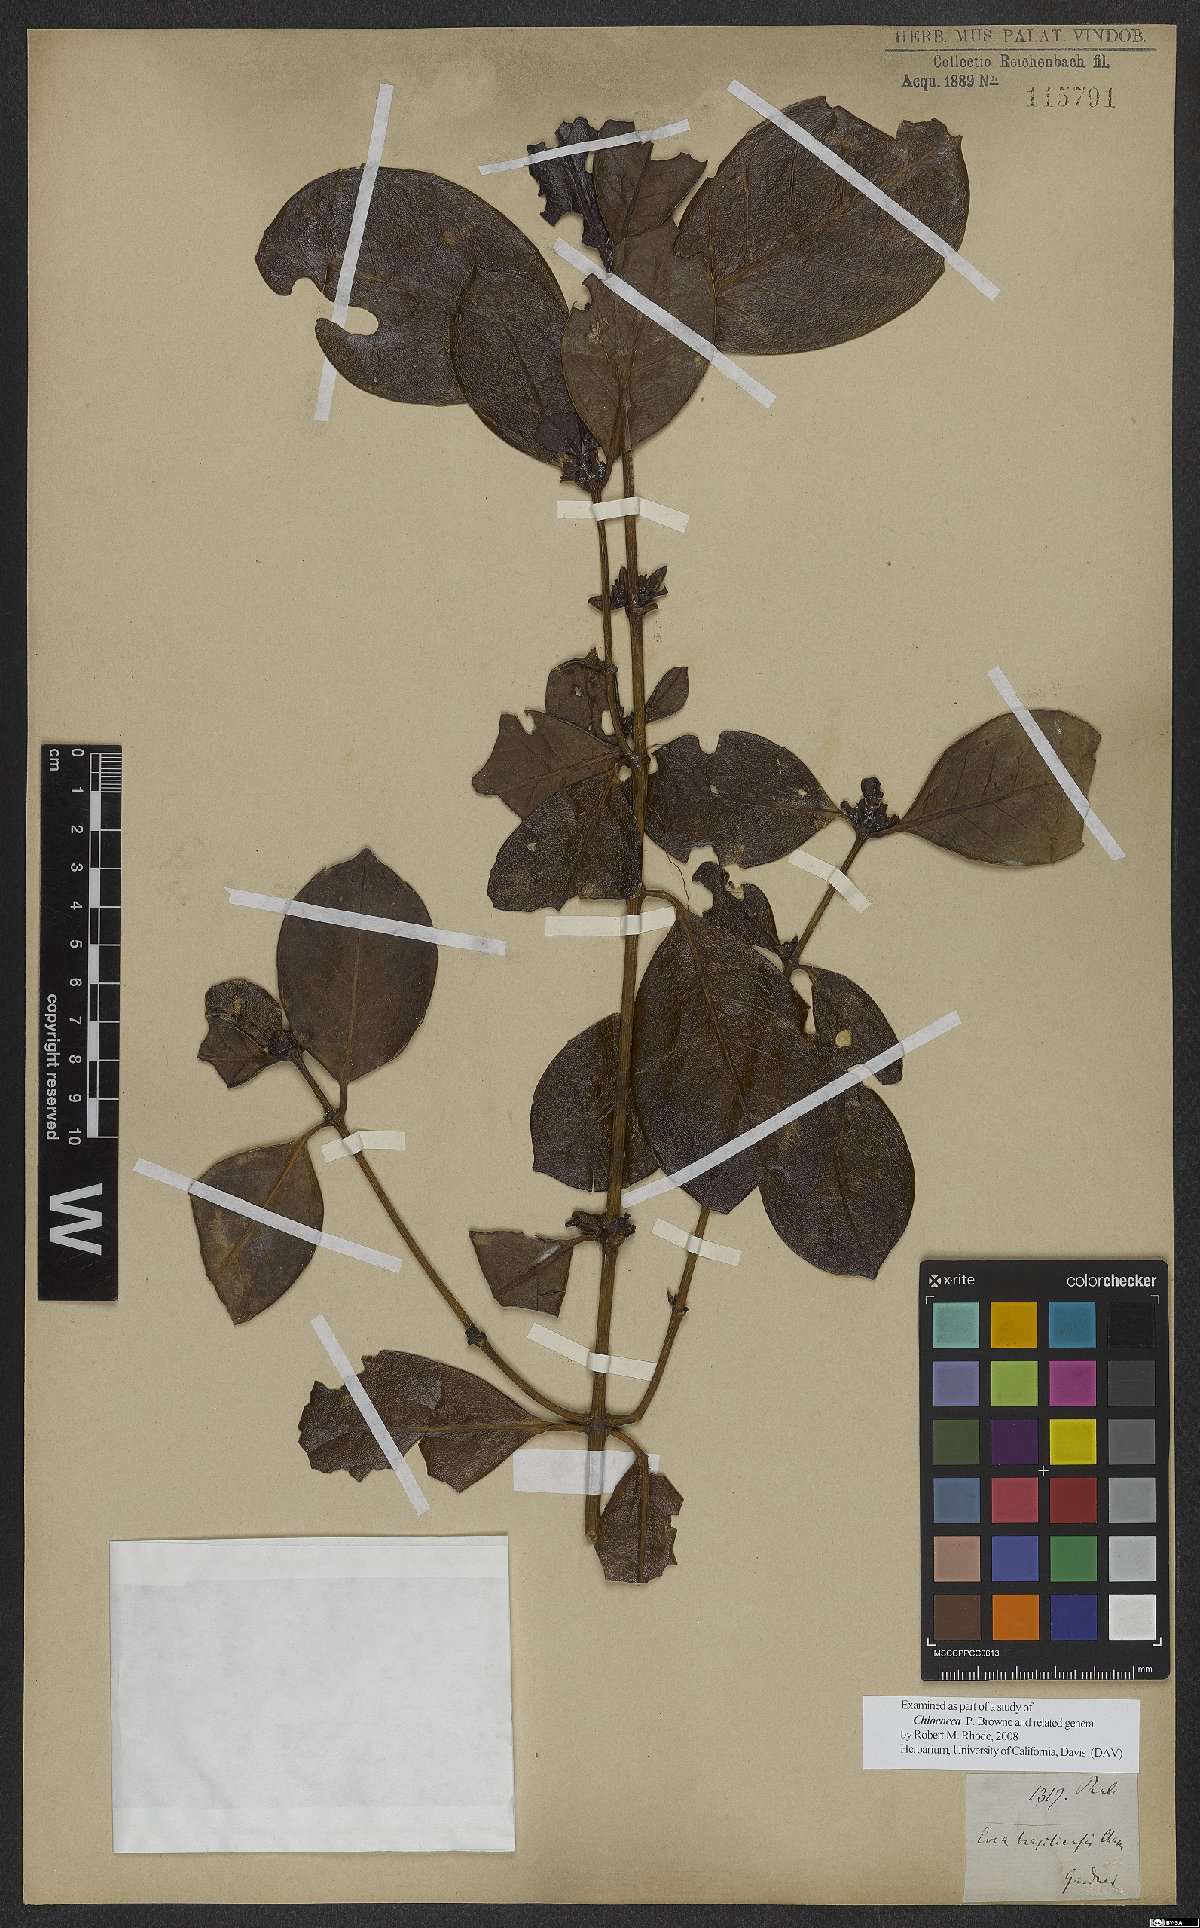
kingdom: Plantae
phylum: Tracheophyta
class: Magnoliopsida
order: Gentianales
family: Rubiaceae
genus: Chiococca
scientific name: Chiococca
